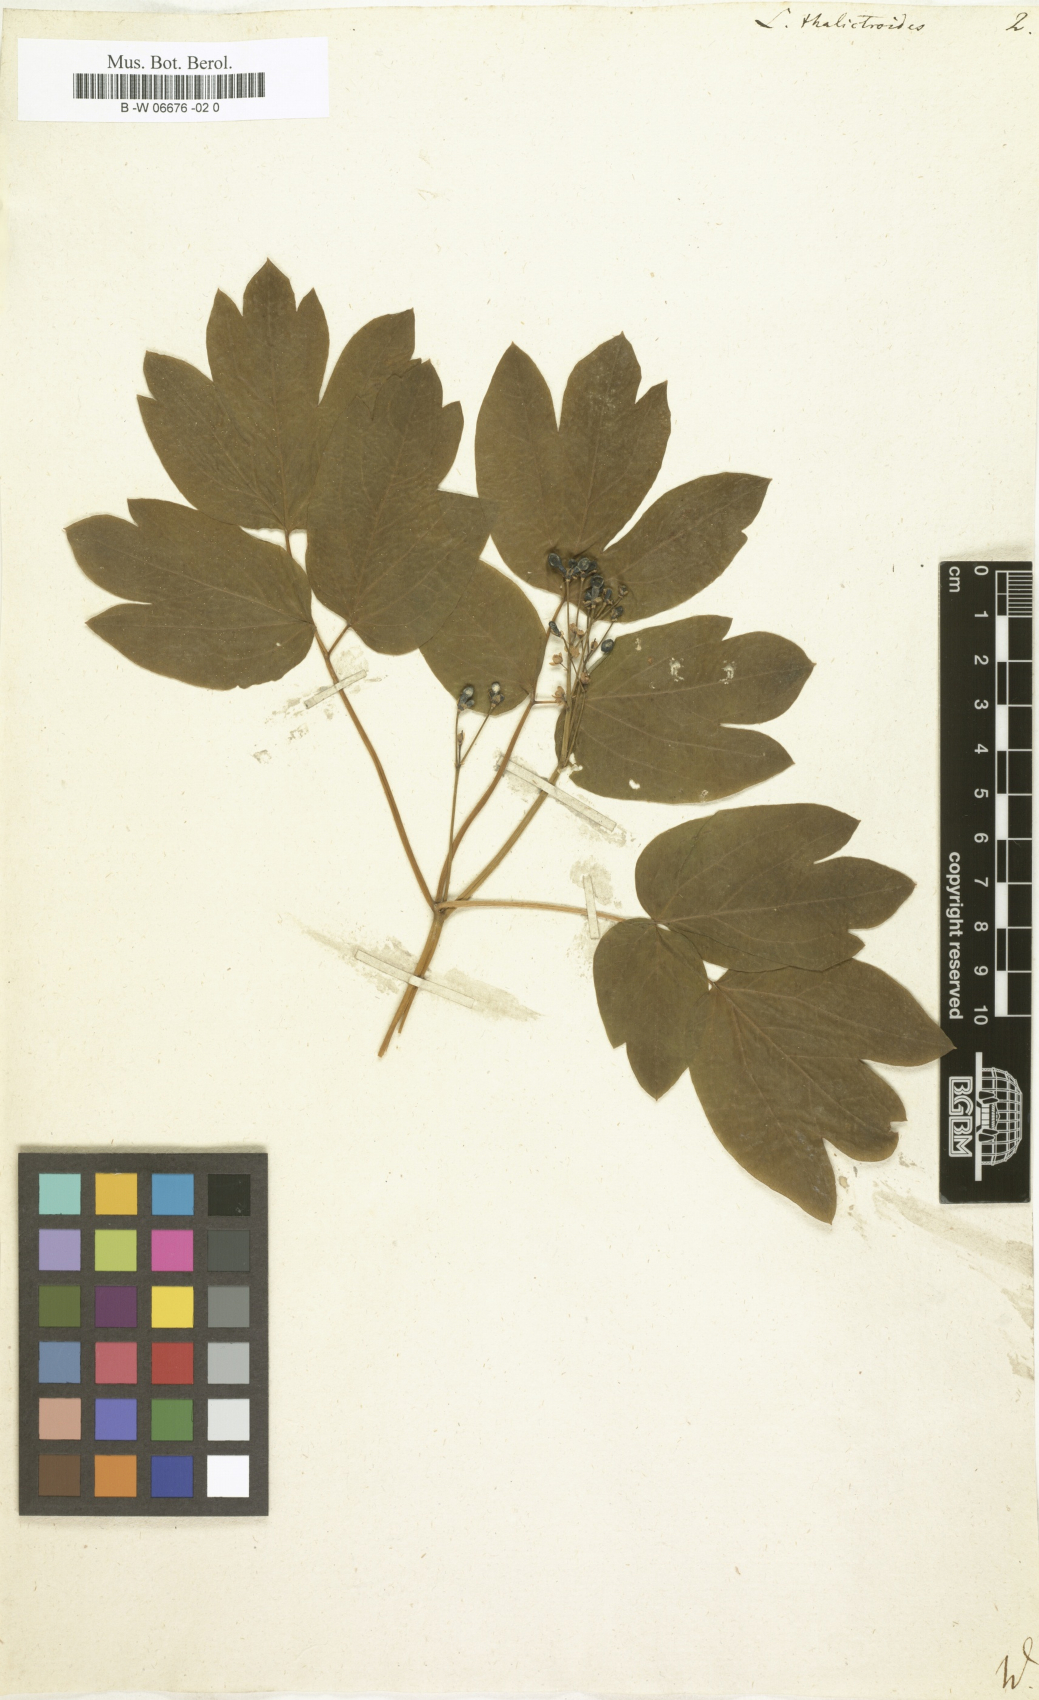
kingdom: Plantae
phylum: Tracheophyta
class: Magnoliopsida
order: Ranunculales
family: Berberidaceae
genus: Caulophyllum
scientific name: Caulophyllum thalictroides
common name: Blue cohosh
